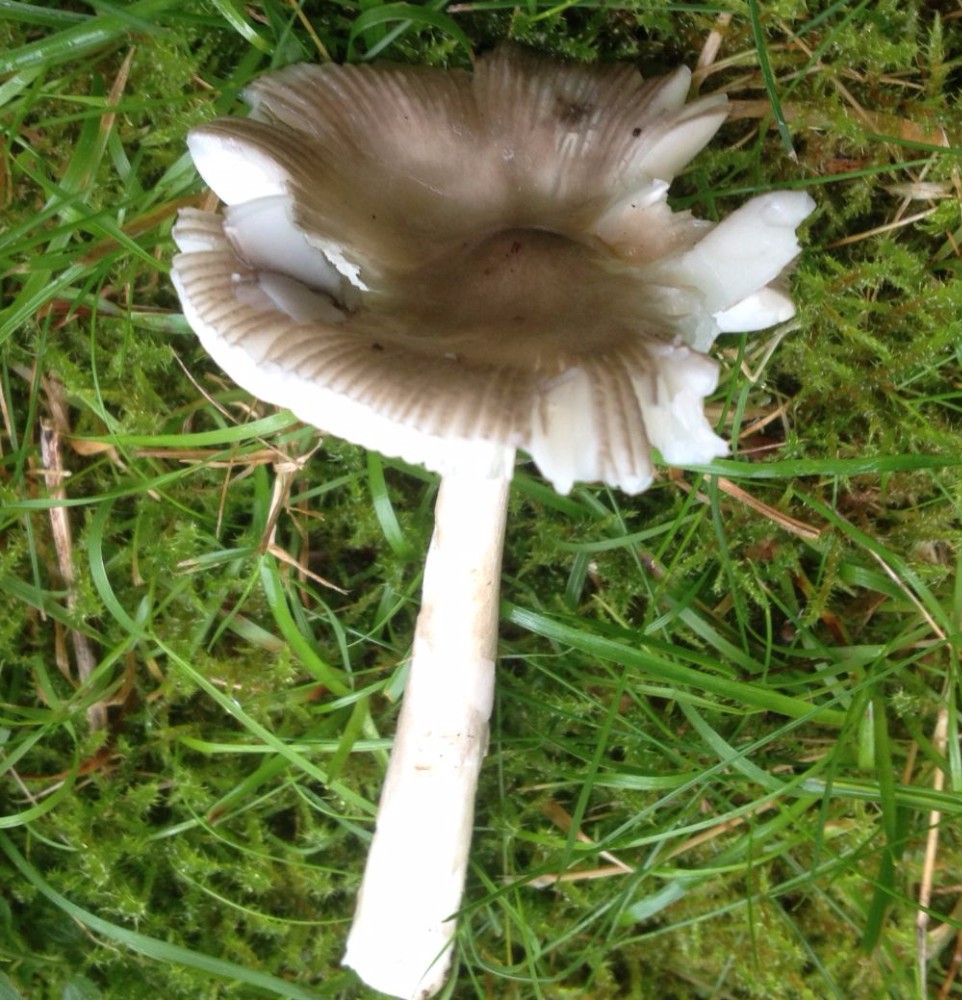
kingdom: Fungi
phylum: Basidiomycota
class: Agaricomycetes
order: Agaricales
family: Amanitaceae
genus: Amanita
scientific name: Amanita vaginata
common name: grå kam-fluesvamp
